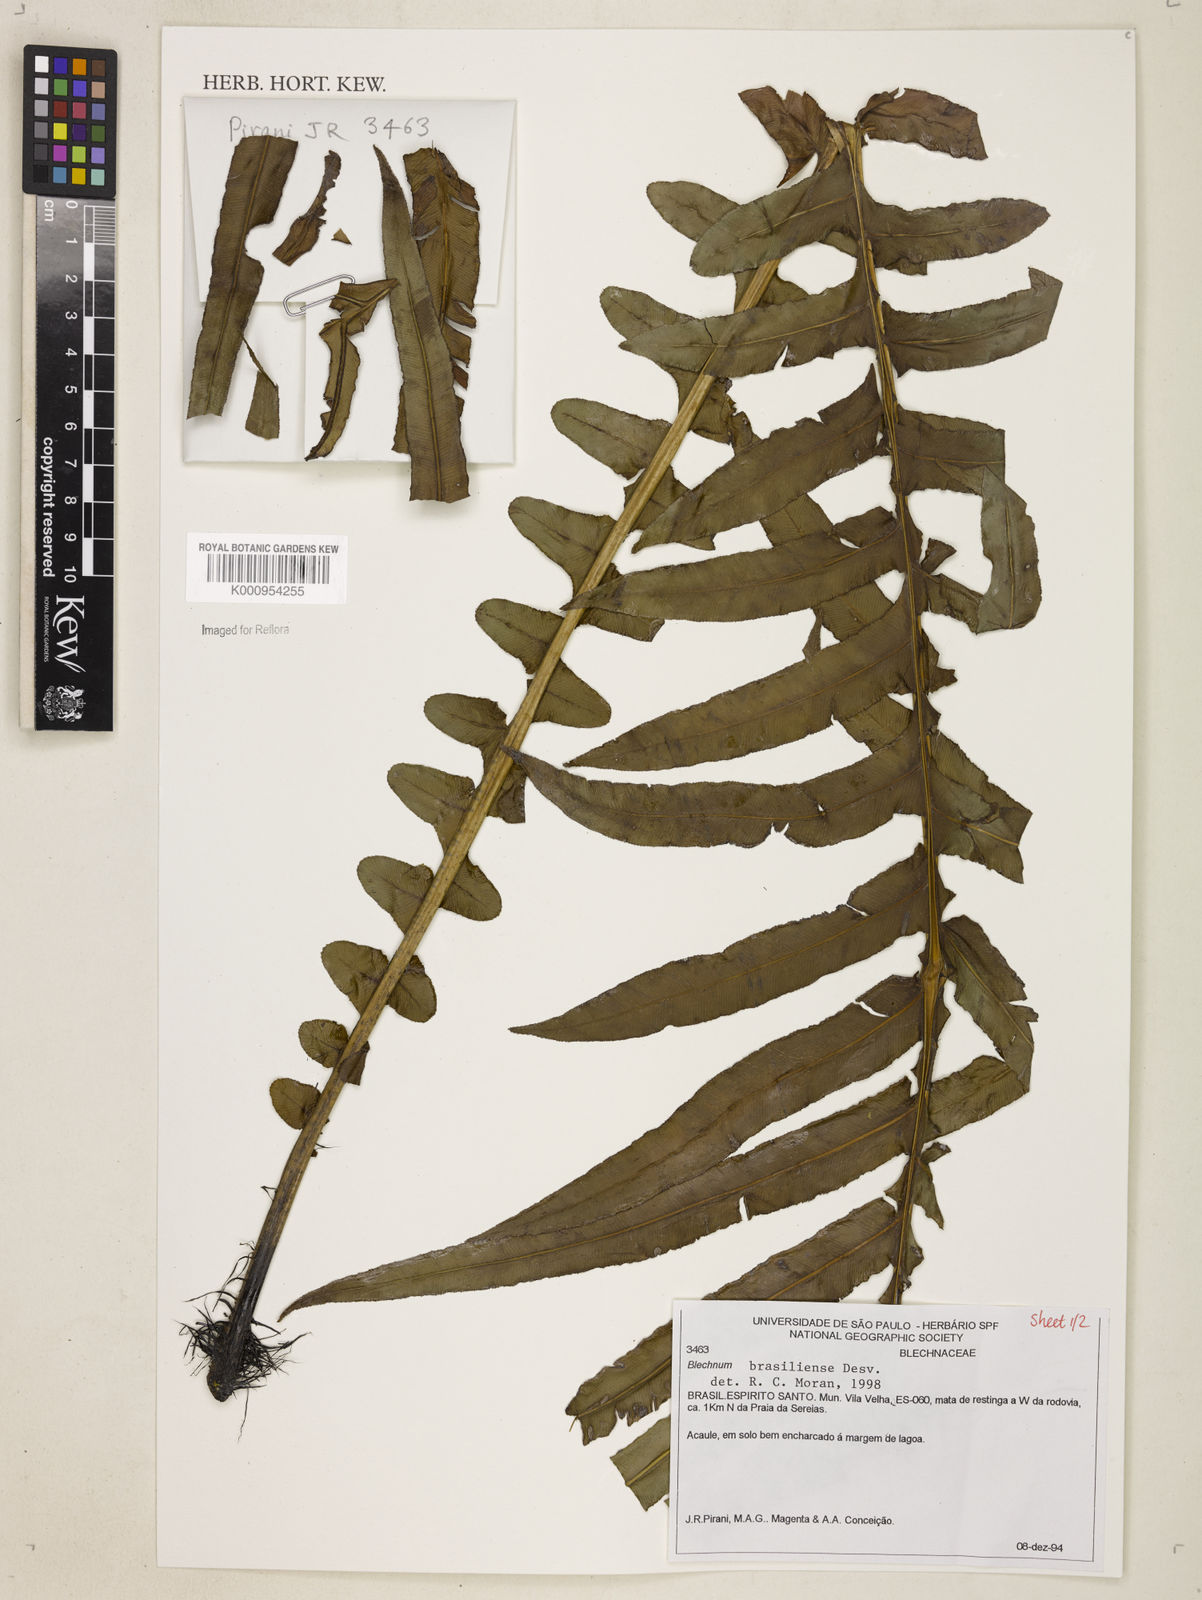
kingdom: Plantae
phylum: Tracheophyta
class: Polypodiopsida
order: Polypodiales
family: Blechnaceae
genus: Neoblechnum
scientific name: Neoblechnum brasiliense
